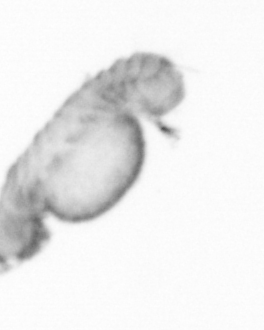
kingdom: Animalia
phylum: Annelida
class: Polychaeta
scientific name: Polychaeta
